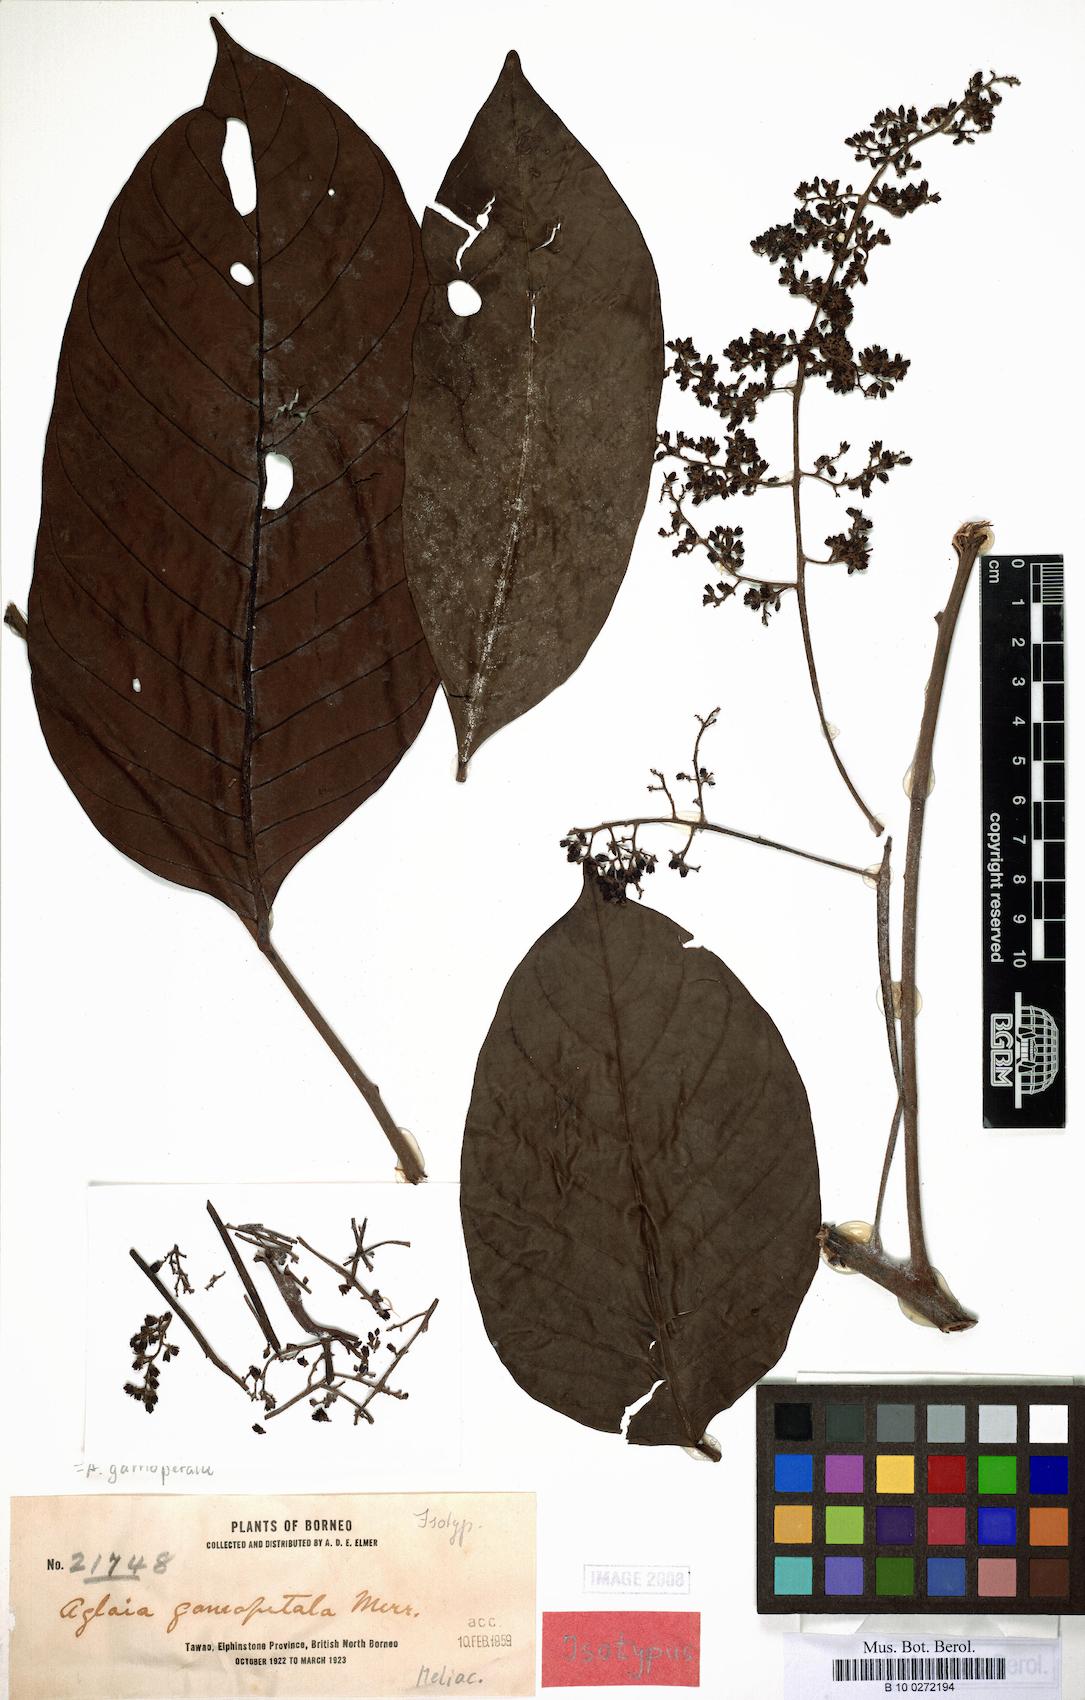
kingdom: Plantae
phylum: Tracheophyta
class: Magnoliopsida
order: Sapindales
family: Meliaceae
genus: Aglaia
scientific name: Aglaia leptantha
